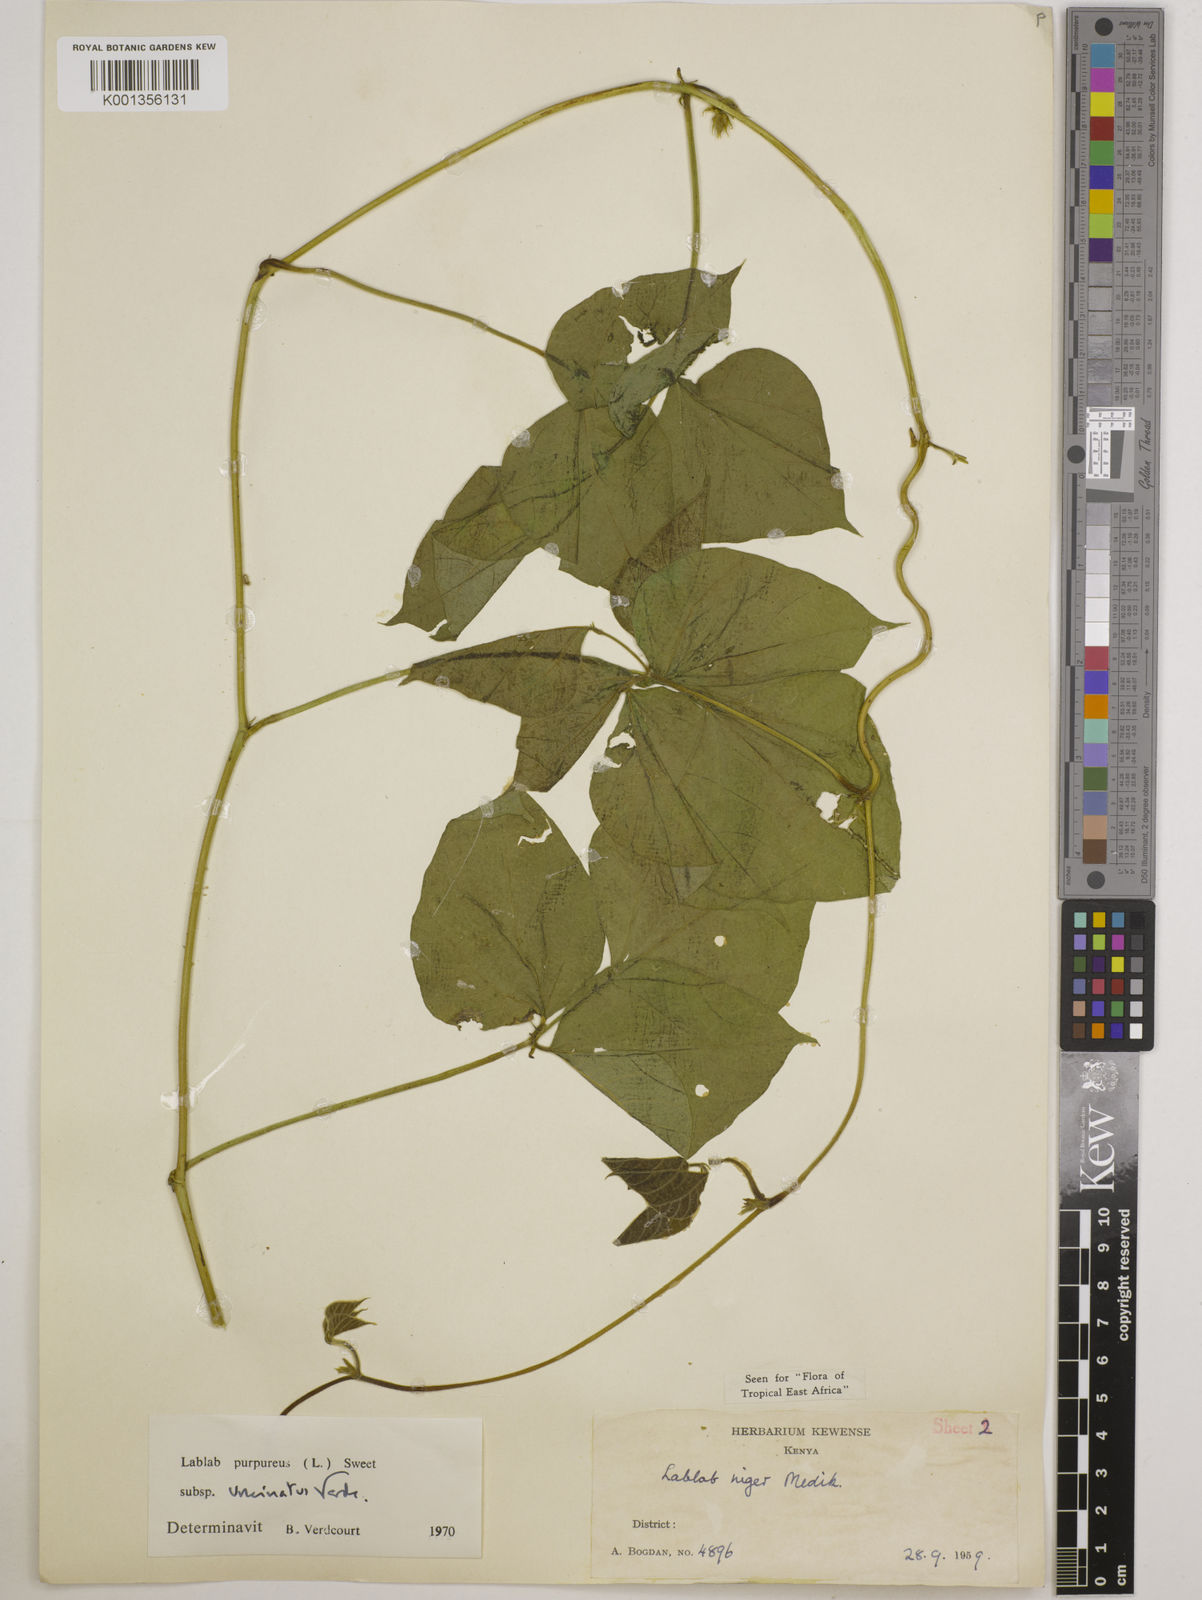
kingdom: Plantae
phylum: Tracheophyta
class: Magnoliopsida
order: Fabales
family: Fabaceae
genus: Lablab
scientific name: Lablab purpureus
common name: Lablab-bean
